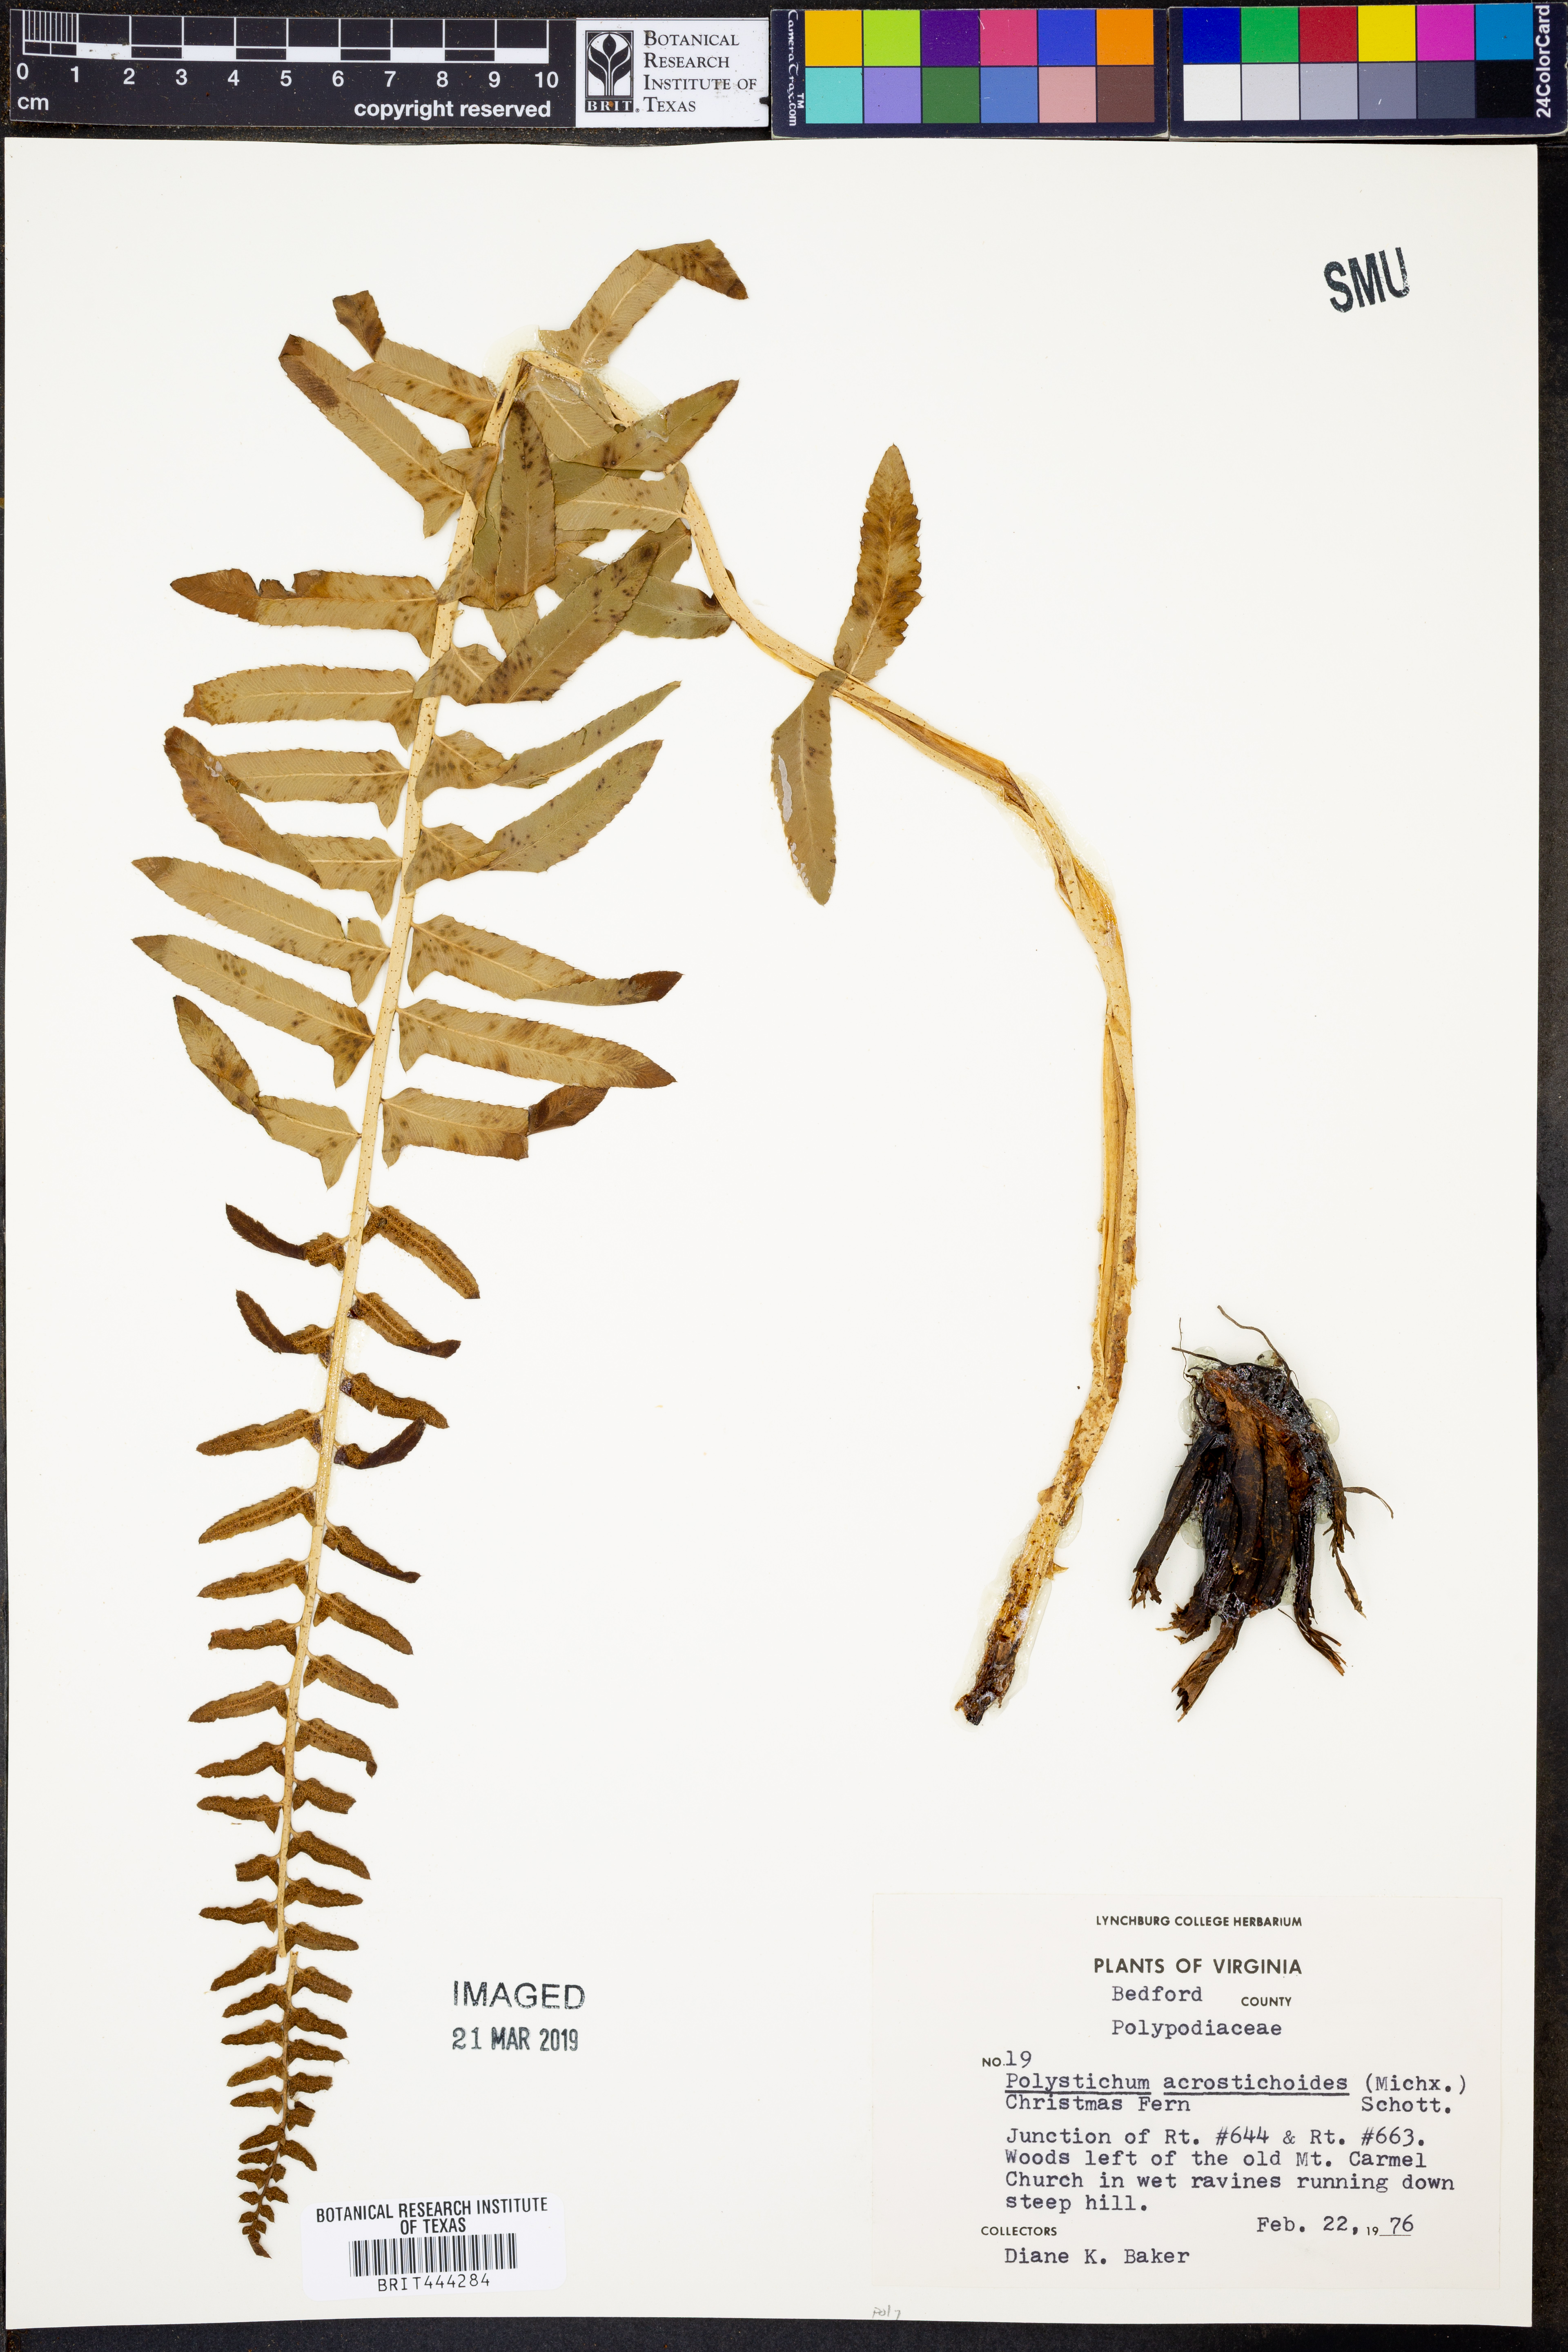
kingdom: Plantae
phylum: Tracheophyta
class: Polypodiopsida
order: Polypodiales
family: Dryopteridaceae
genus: Polystichum
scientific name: Polystichum acrostichoides
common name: Christmas fern
